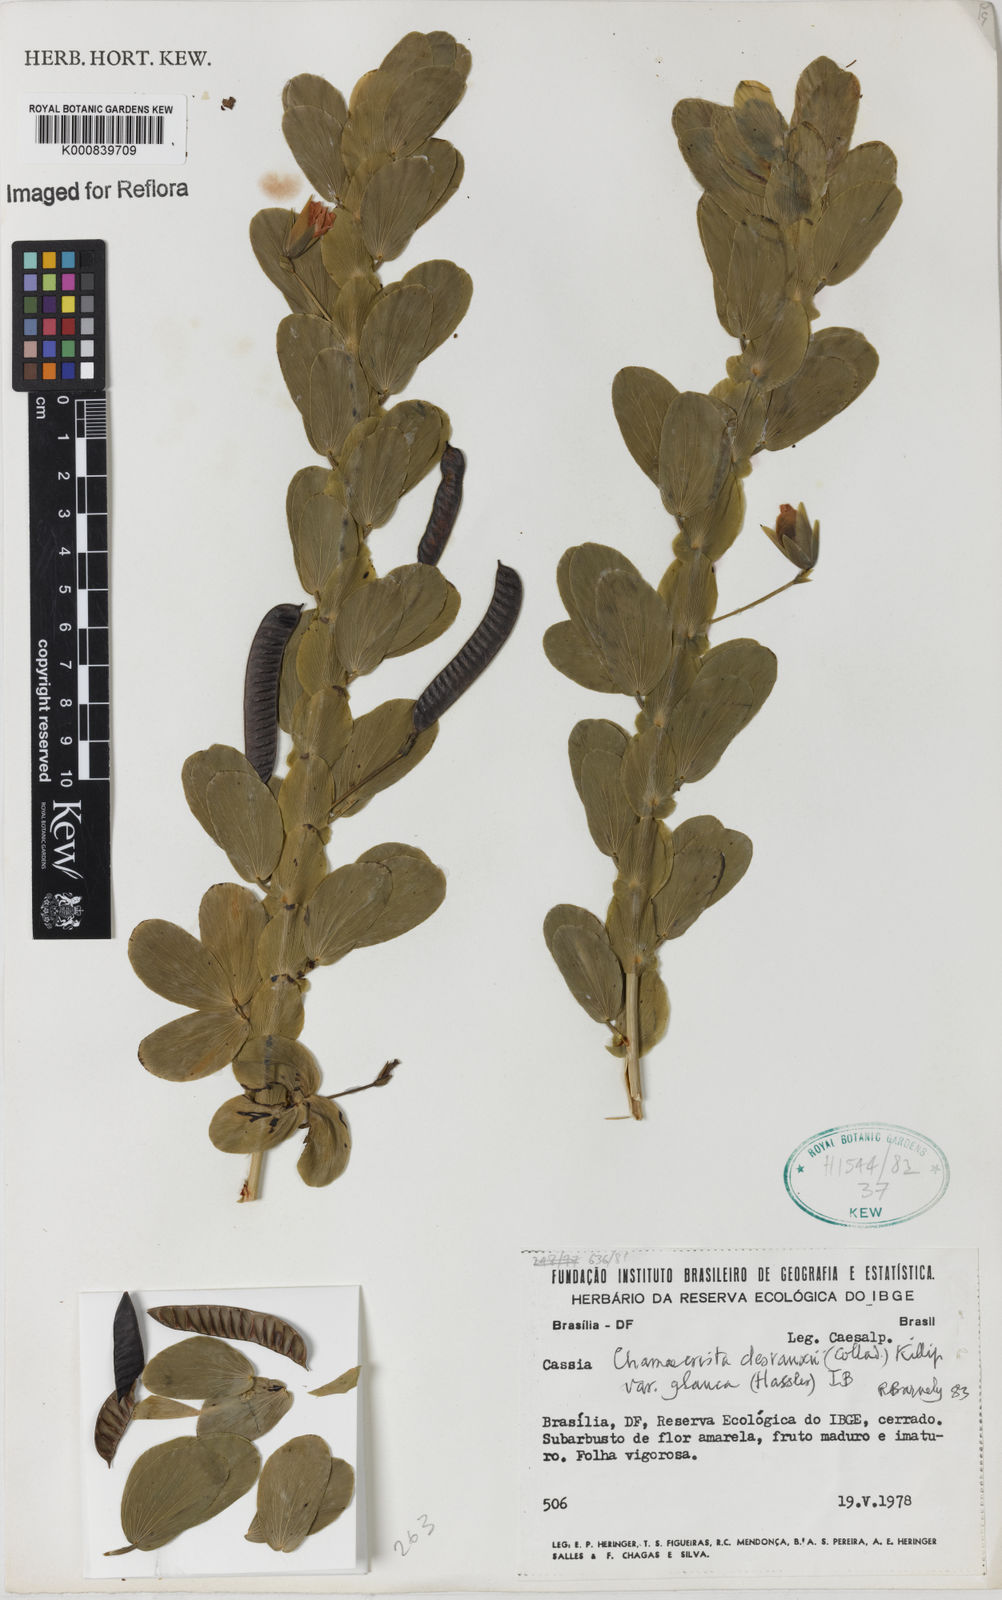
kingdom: Plantae
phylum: Tracheophyta
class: Magnoliopsida
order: Fabales
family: Fabaceae
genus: Chamaecrista
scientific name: Chamaecrista desvauxii
